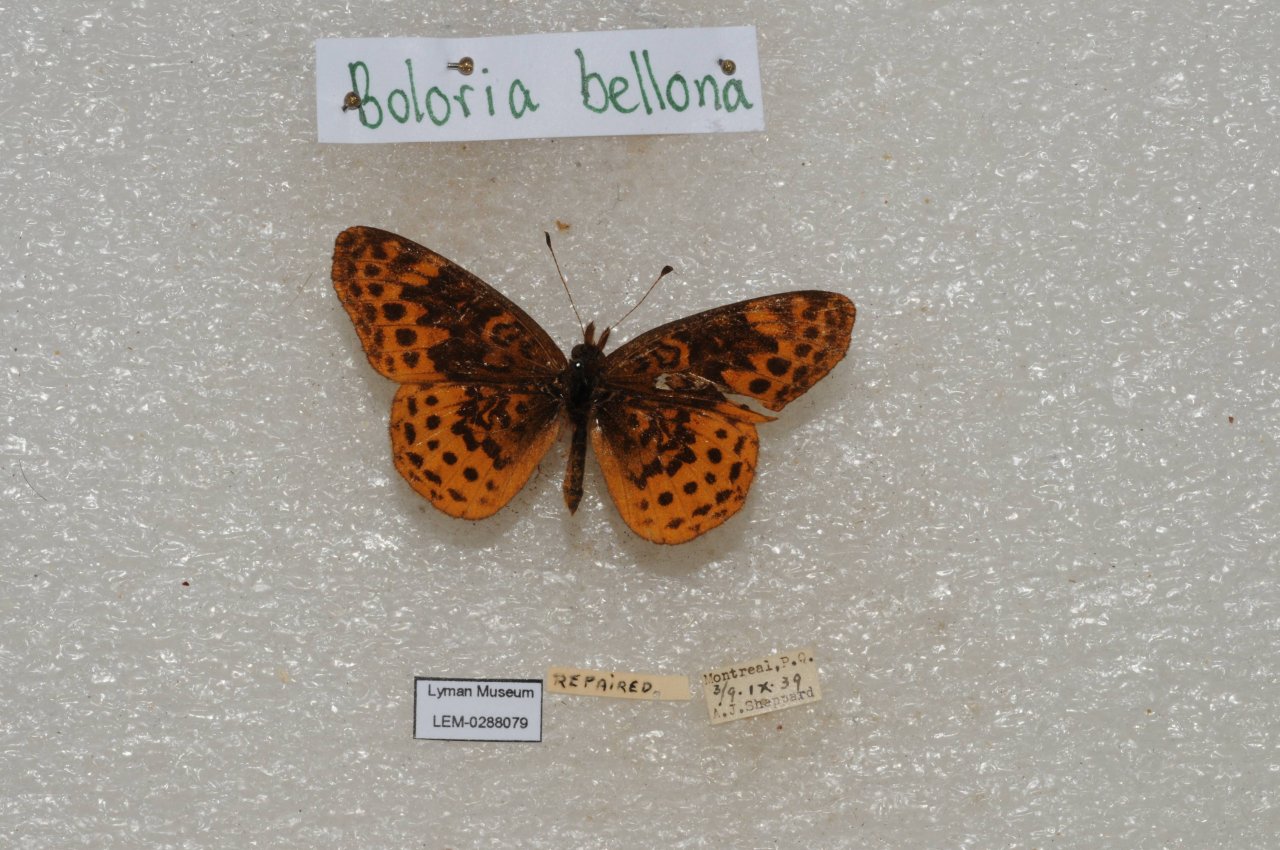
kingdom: Animalia
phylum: Arthropoda
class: Insecta
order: Lepidoptera
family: Nymphalidae
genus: Clossiana
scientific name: Clossiana toddi
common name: Meadow Fritillary
